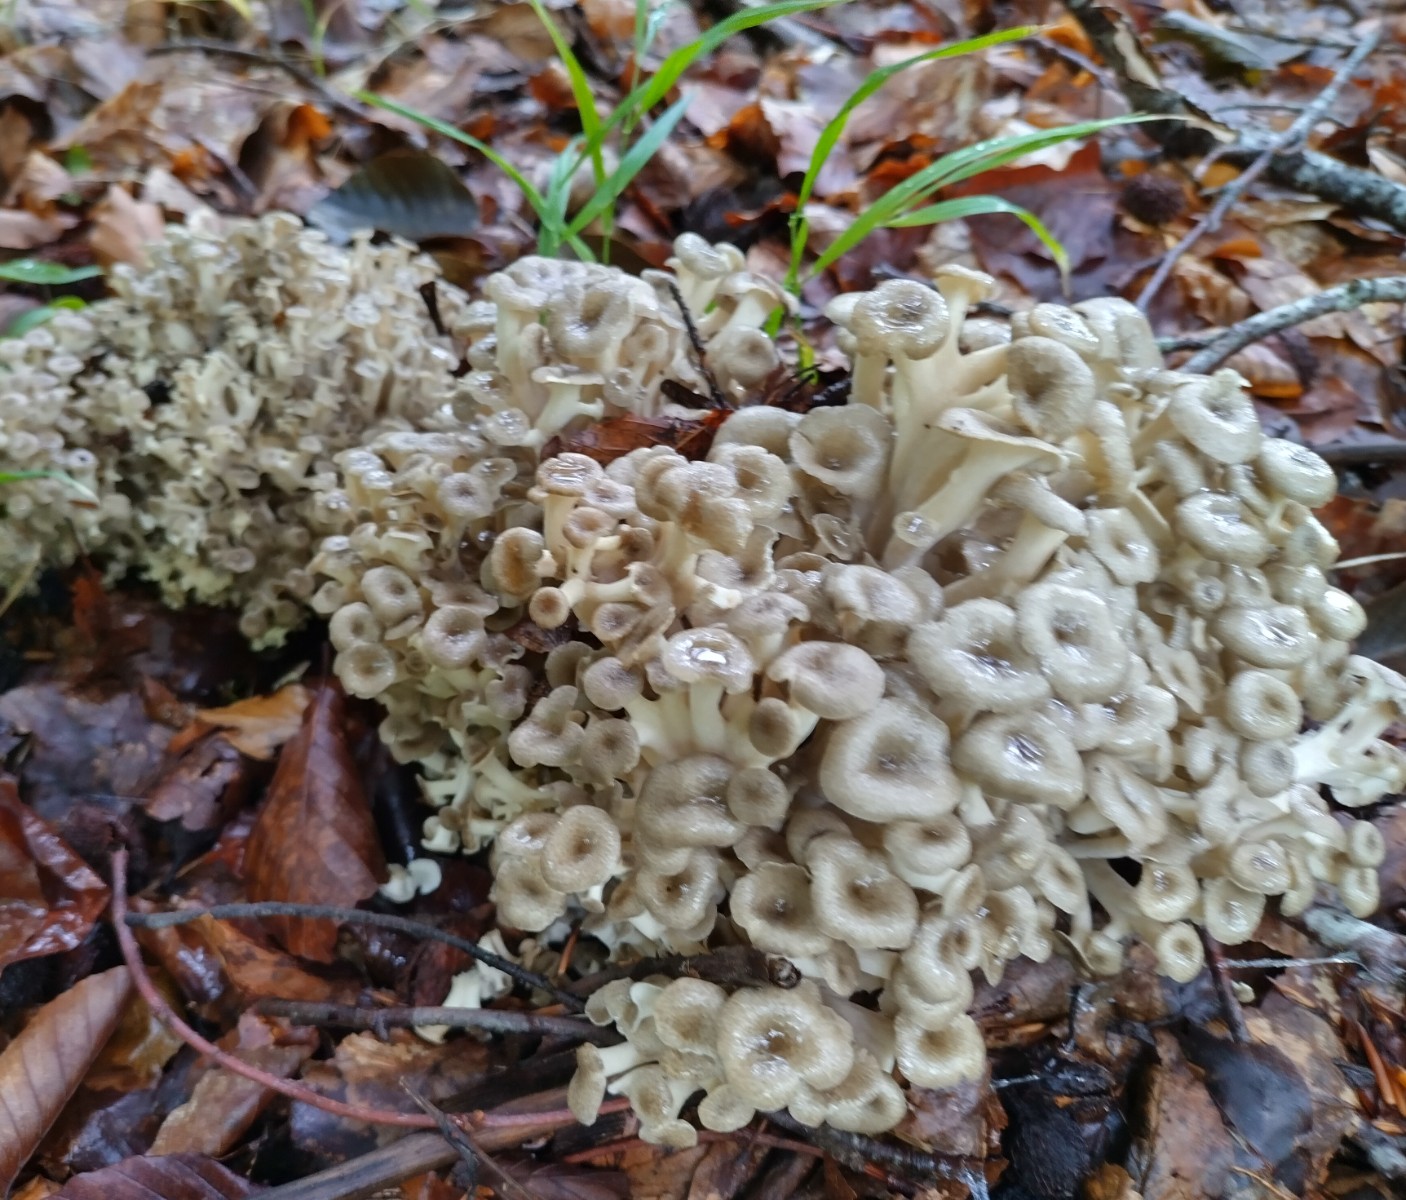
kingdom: Fungi
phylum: Basidiomycota
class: Agaricomycetes
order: Polyporales
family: Polyporaceae
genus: Polyporus
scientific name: Polyporus umbellatus
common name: skærmformet stilkporesvamp
